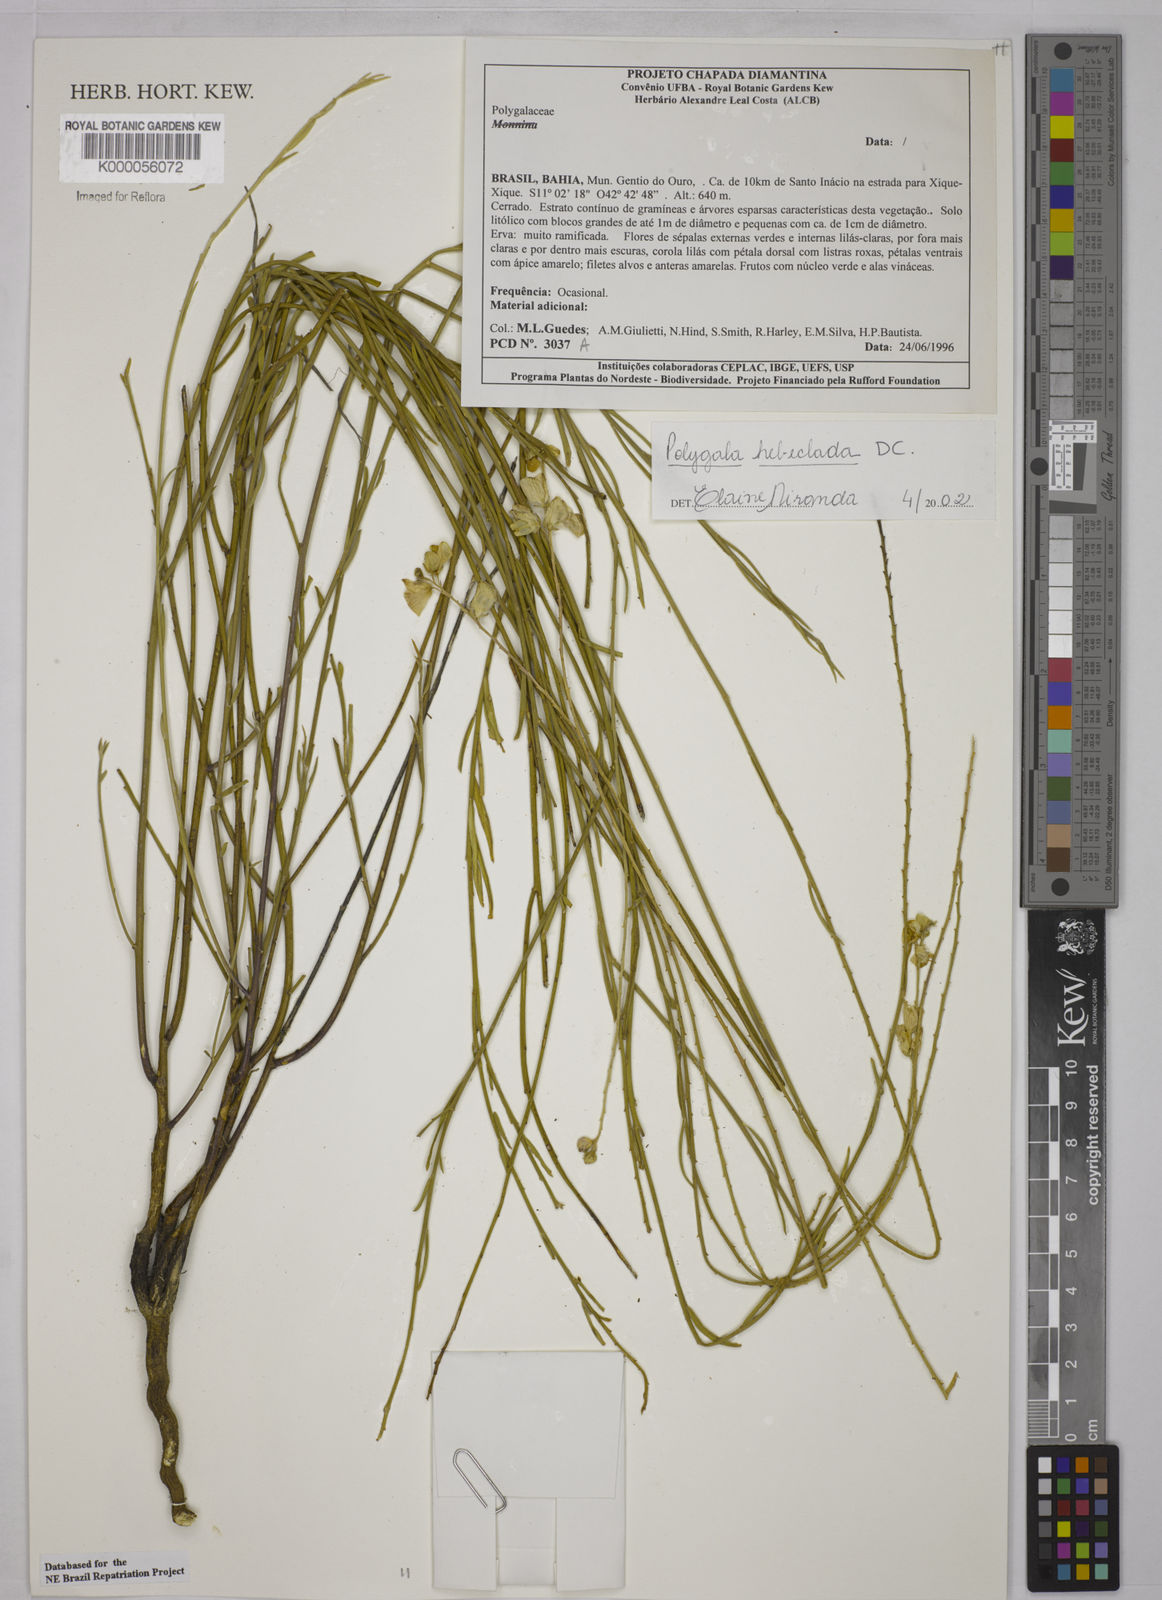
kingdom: Plantae
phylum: Tracheophyta
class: Magnoliopsida
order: Fabales
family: Polygalaceae
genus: Asemeia
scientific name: Asemeia hebeclada
